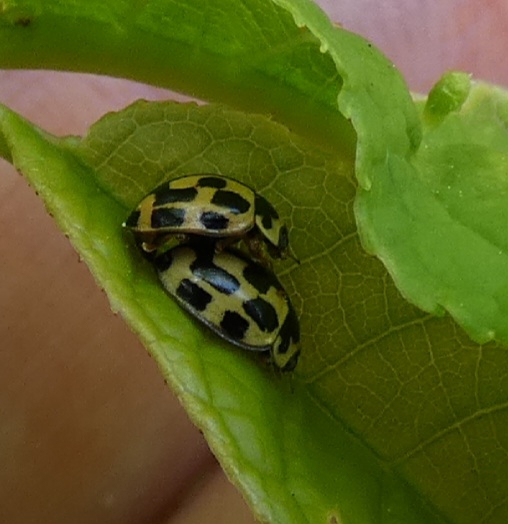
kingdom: Animalia
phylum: Arthropoda
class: Insecta
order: Coleoptera
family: Coccinellidae
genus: Propylaea
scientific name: Propylaea quatuordecimpunctata
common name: Skakbræt
